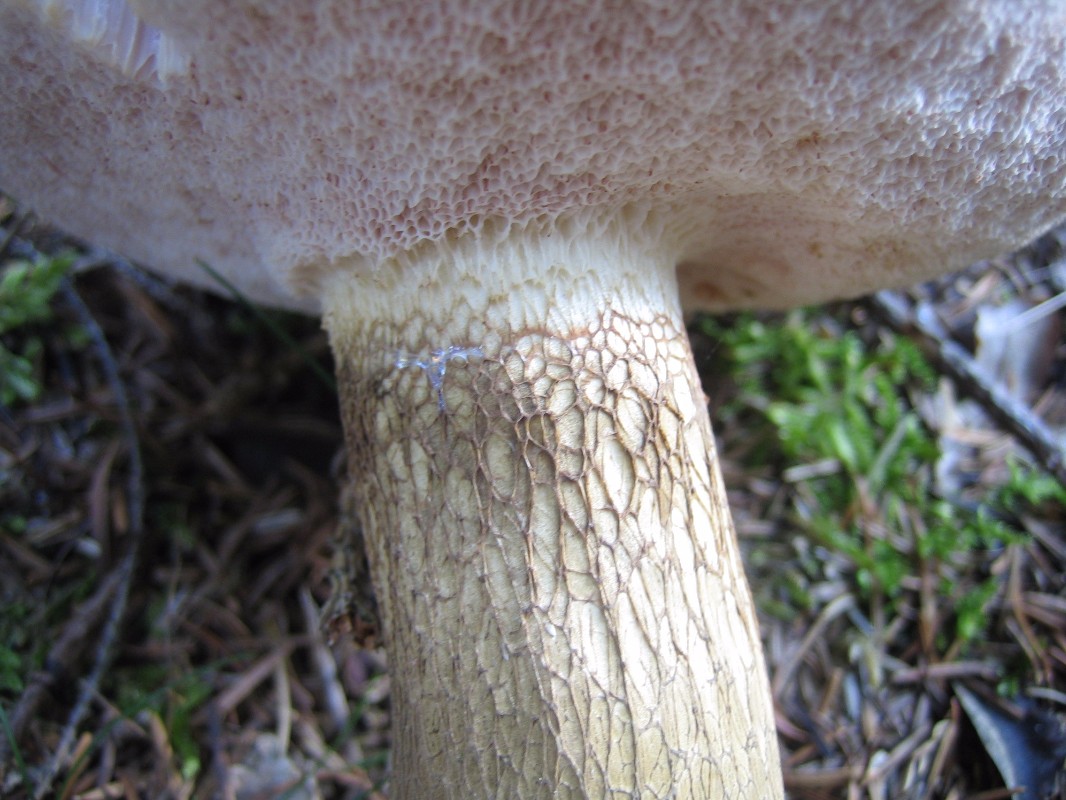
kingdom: Fungi
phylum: Basidiomycota
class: Agaricomycetes
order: Boletales
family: Boletaceae
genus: Tylopilus
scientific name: Tylopilus felleus
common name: galderørhat
